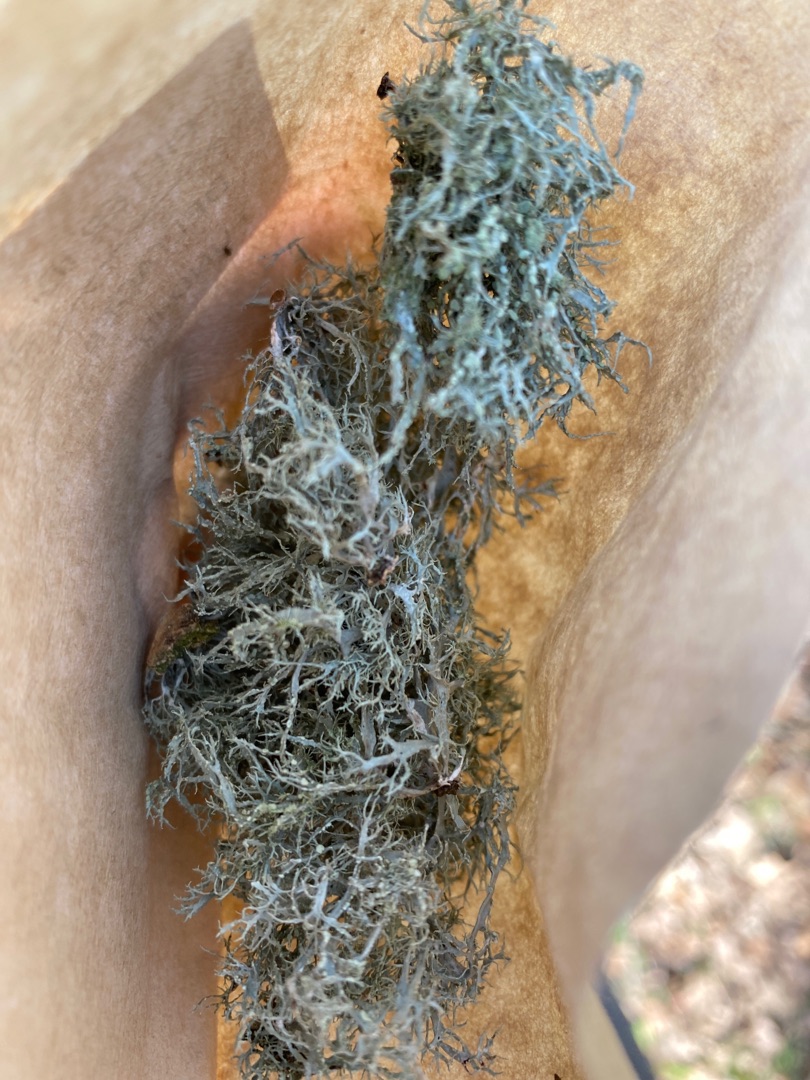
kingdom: Fungi
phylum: Ascomycota
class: Lecanoromycetes
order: Lecanorales
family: Ramalinaceae
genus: Ramalina
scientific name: Ramalina farinacea
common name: Melet grenlav
